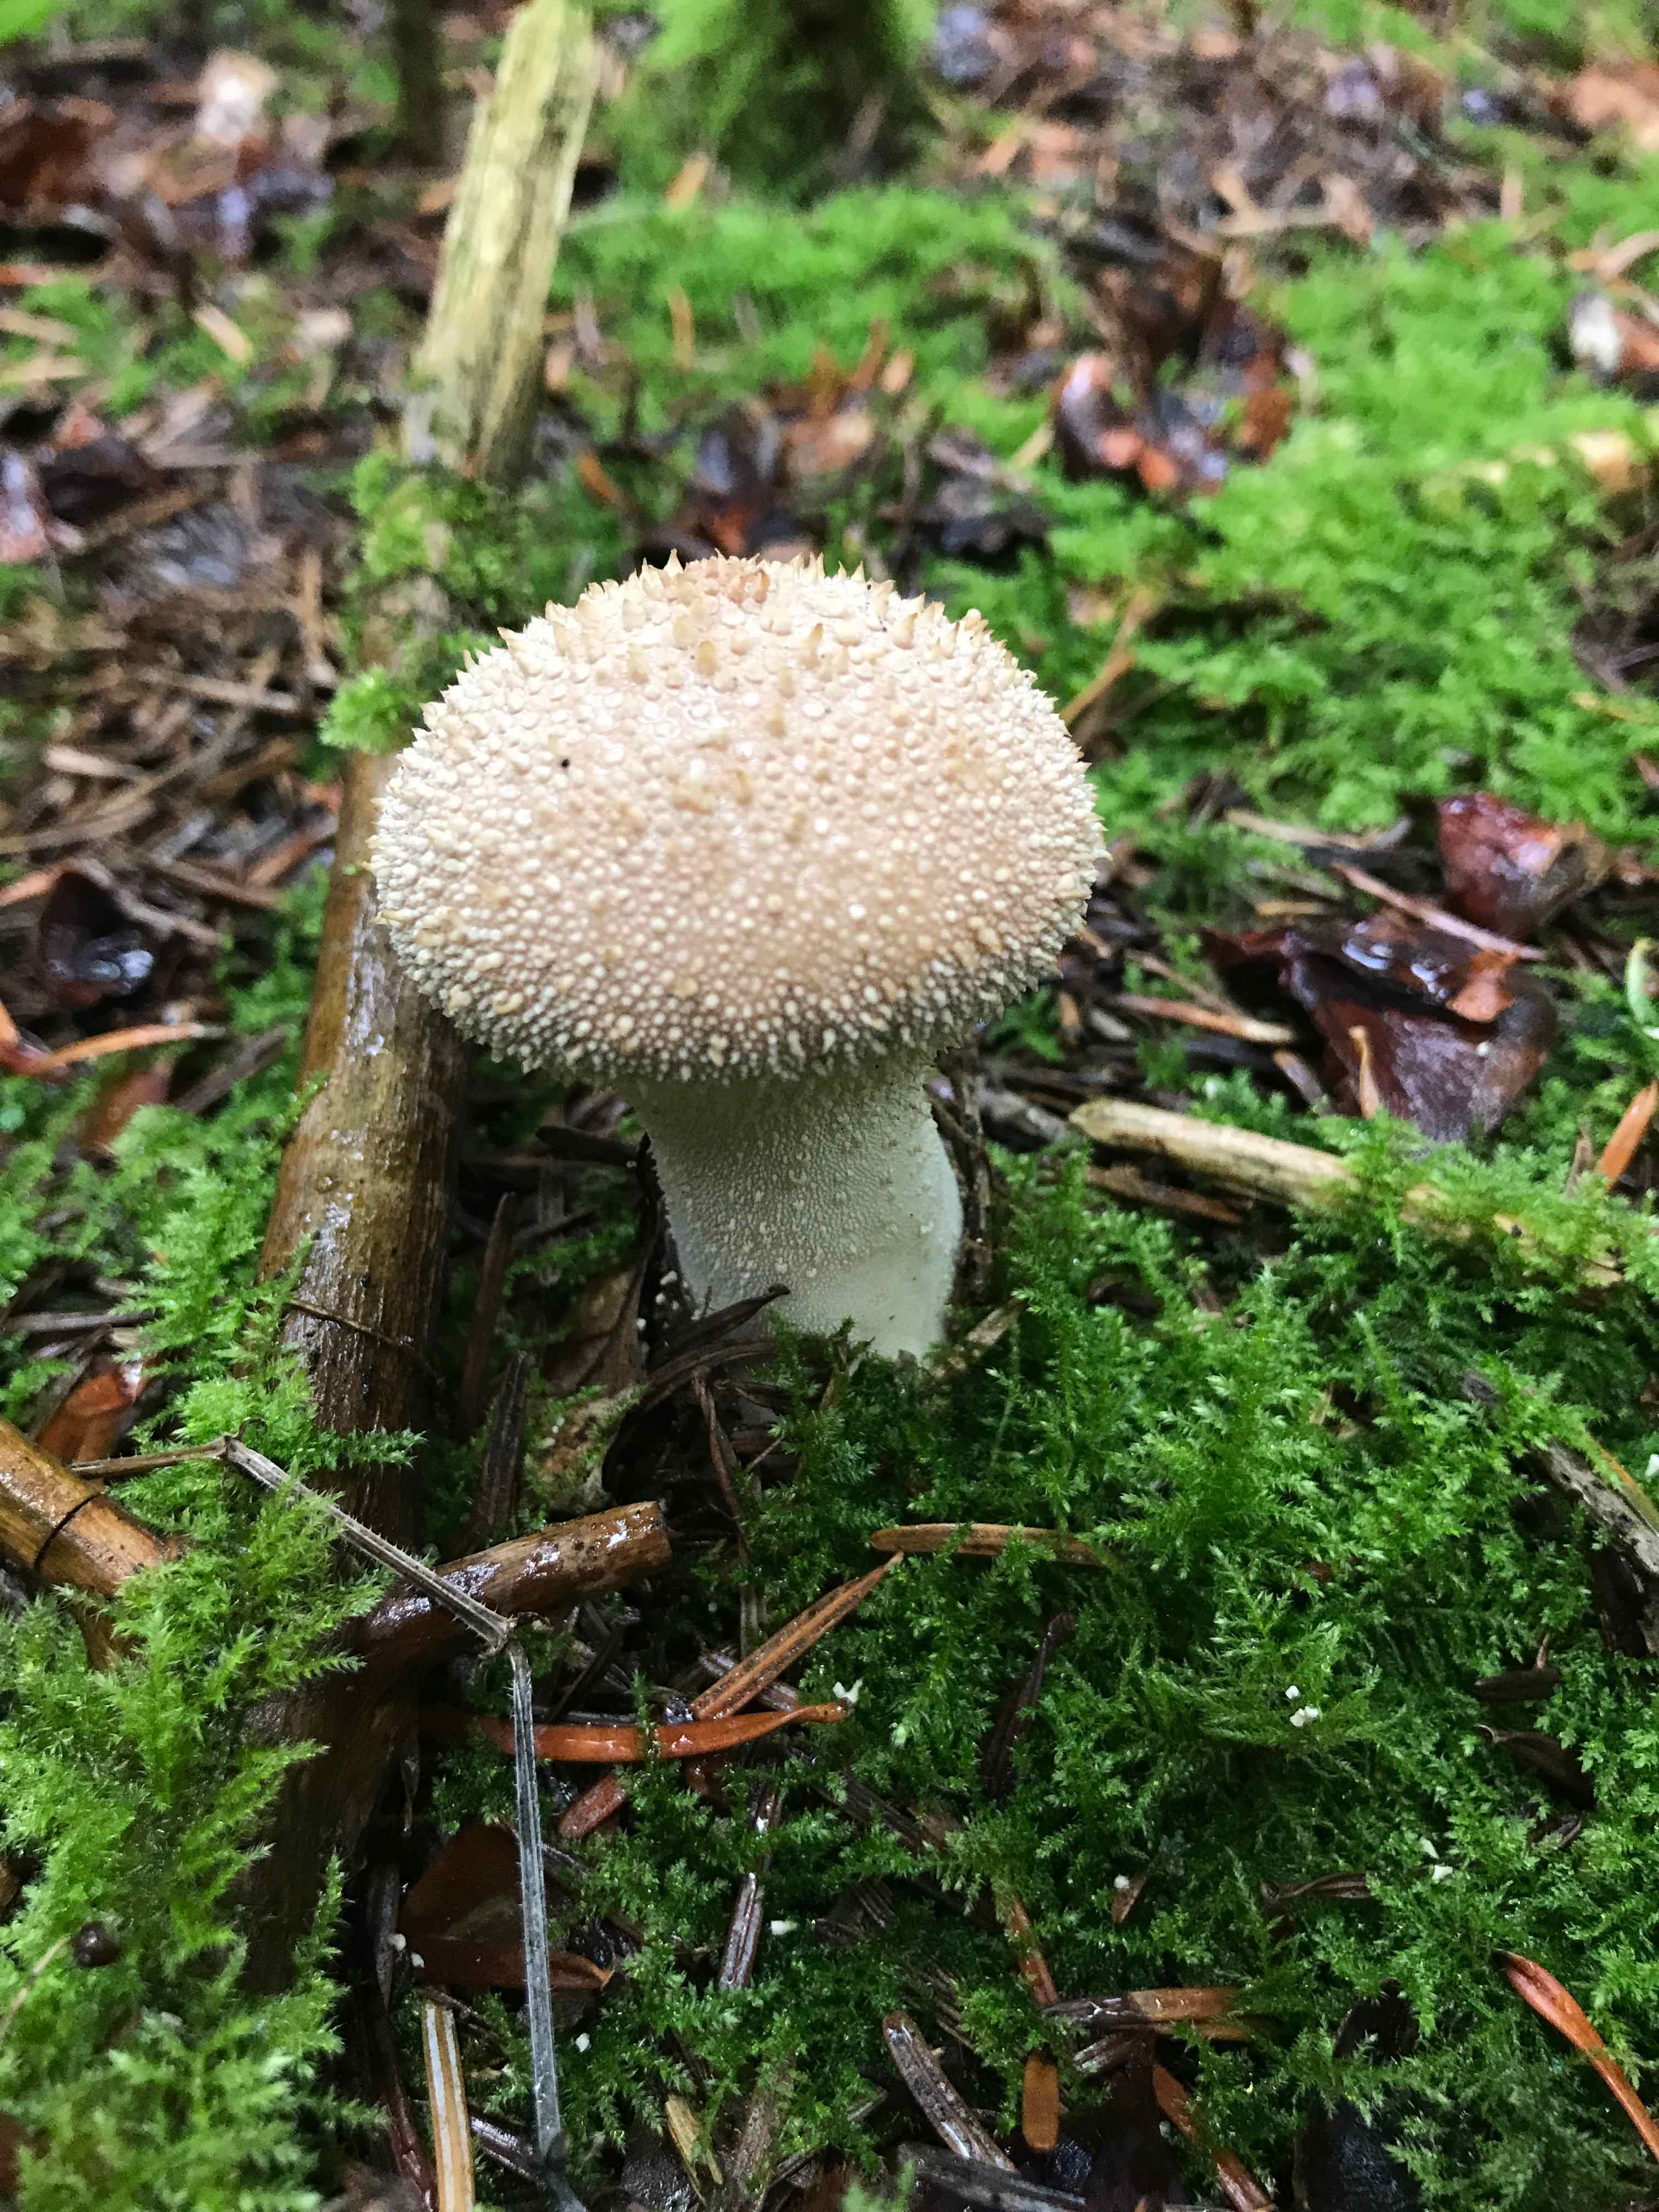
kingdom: Fungi
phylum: Basidiomycota
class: Agaricomycetes
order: Agaricales
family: Lycoperdaceae
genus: Lycoperdon
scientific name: Lycoperdon perlatum
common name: krystal-støvbold
